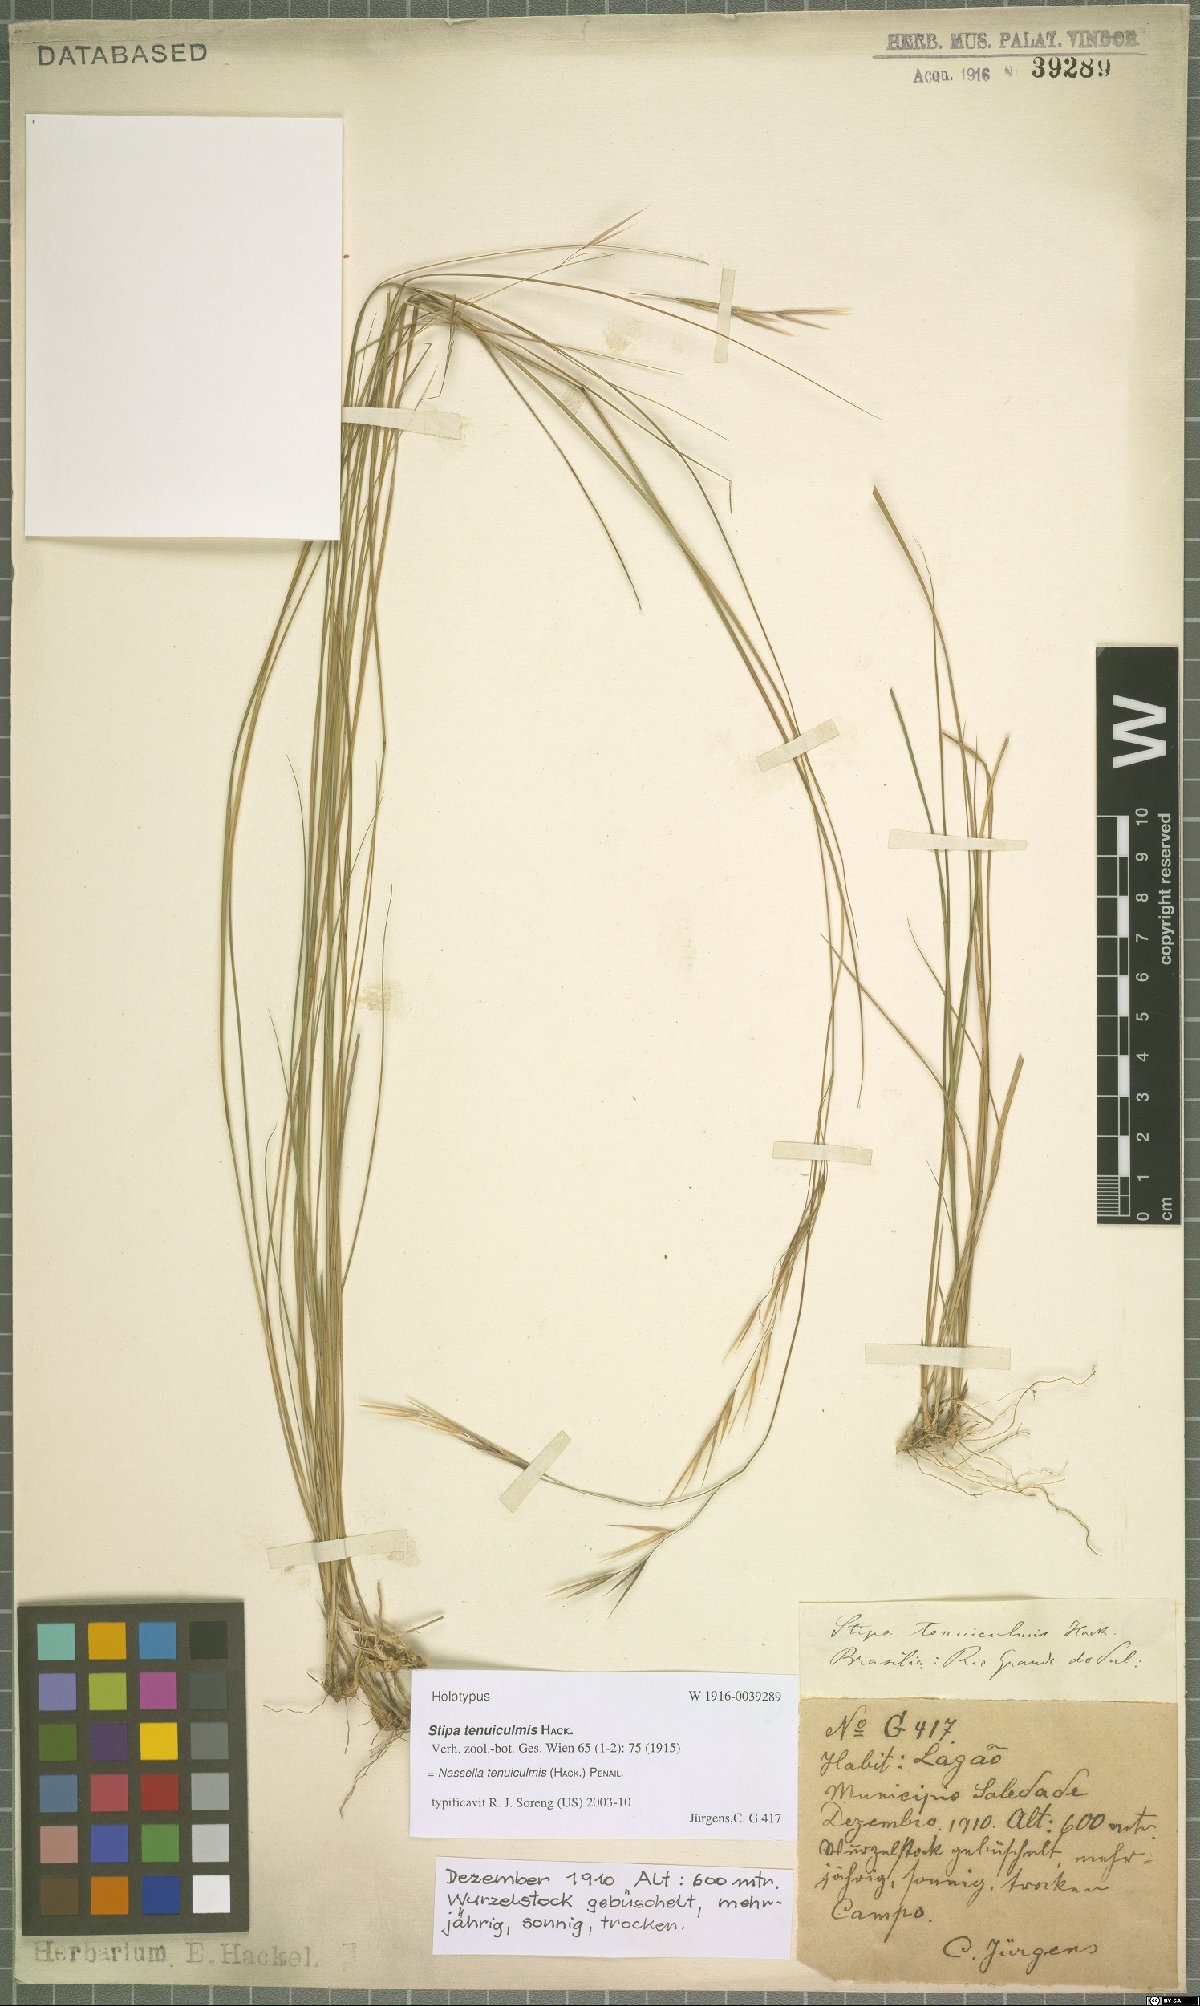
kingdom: Plantae
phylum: Tracheophyta
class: Liliopsida
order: Poales
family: Poaceae
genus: Nassella
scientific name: Nassella tenuiculmis
